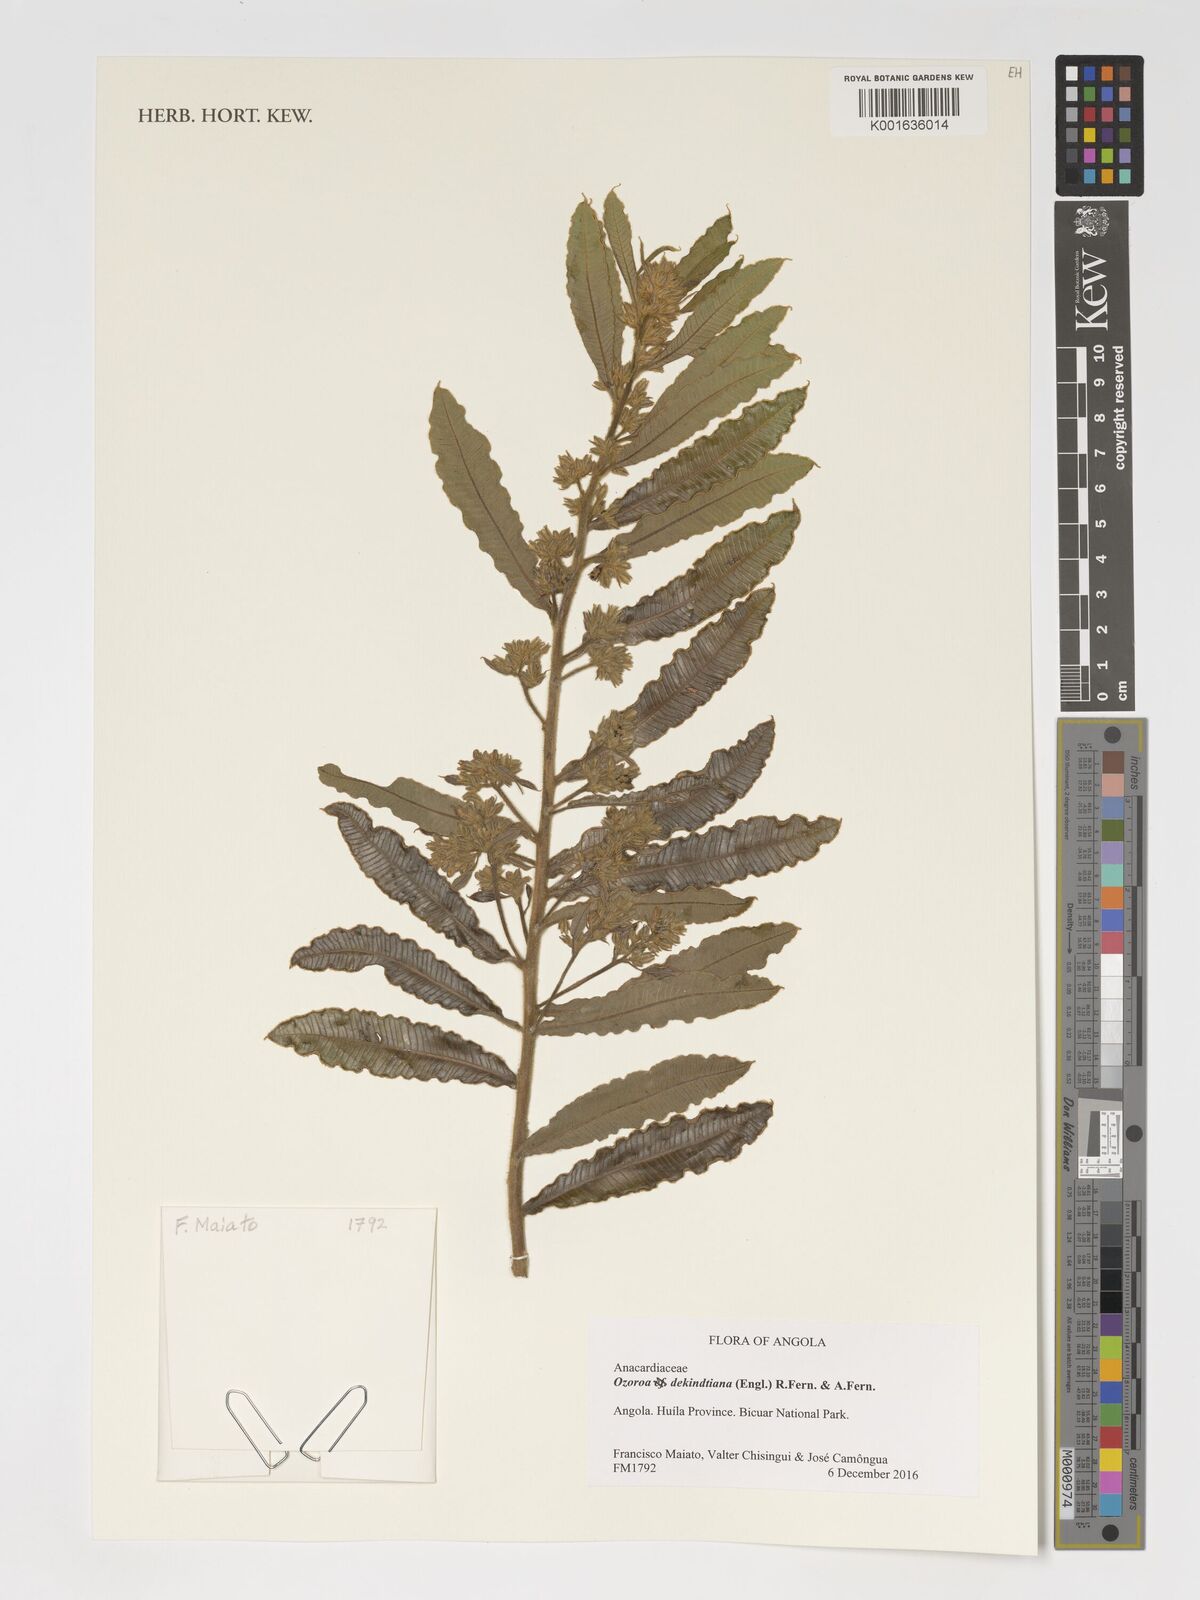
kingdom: Plantae
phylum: Tracheophyta
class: Magnoliopsida
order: Sapindales
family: Anacardiaceae
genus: Ozoroa
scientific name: Ozoroa dekindtiana
